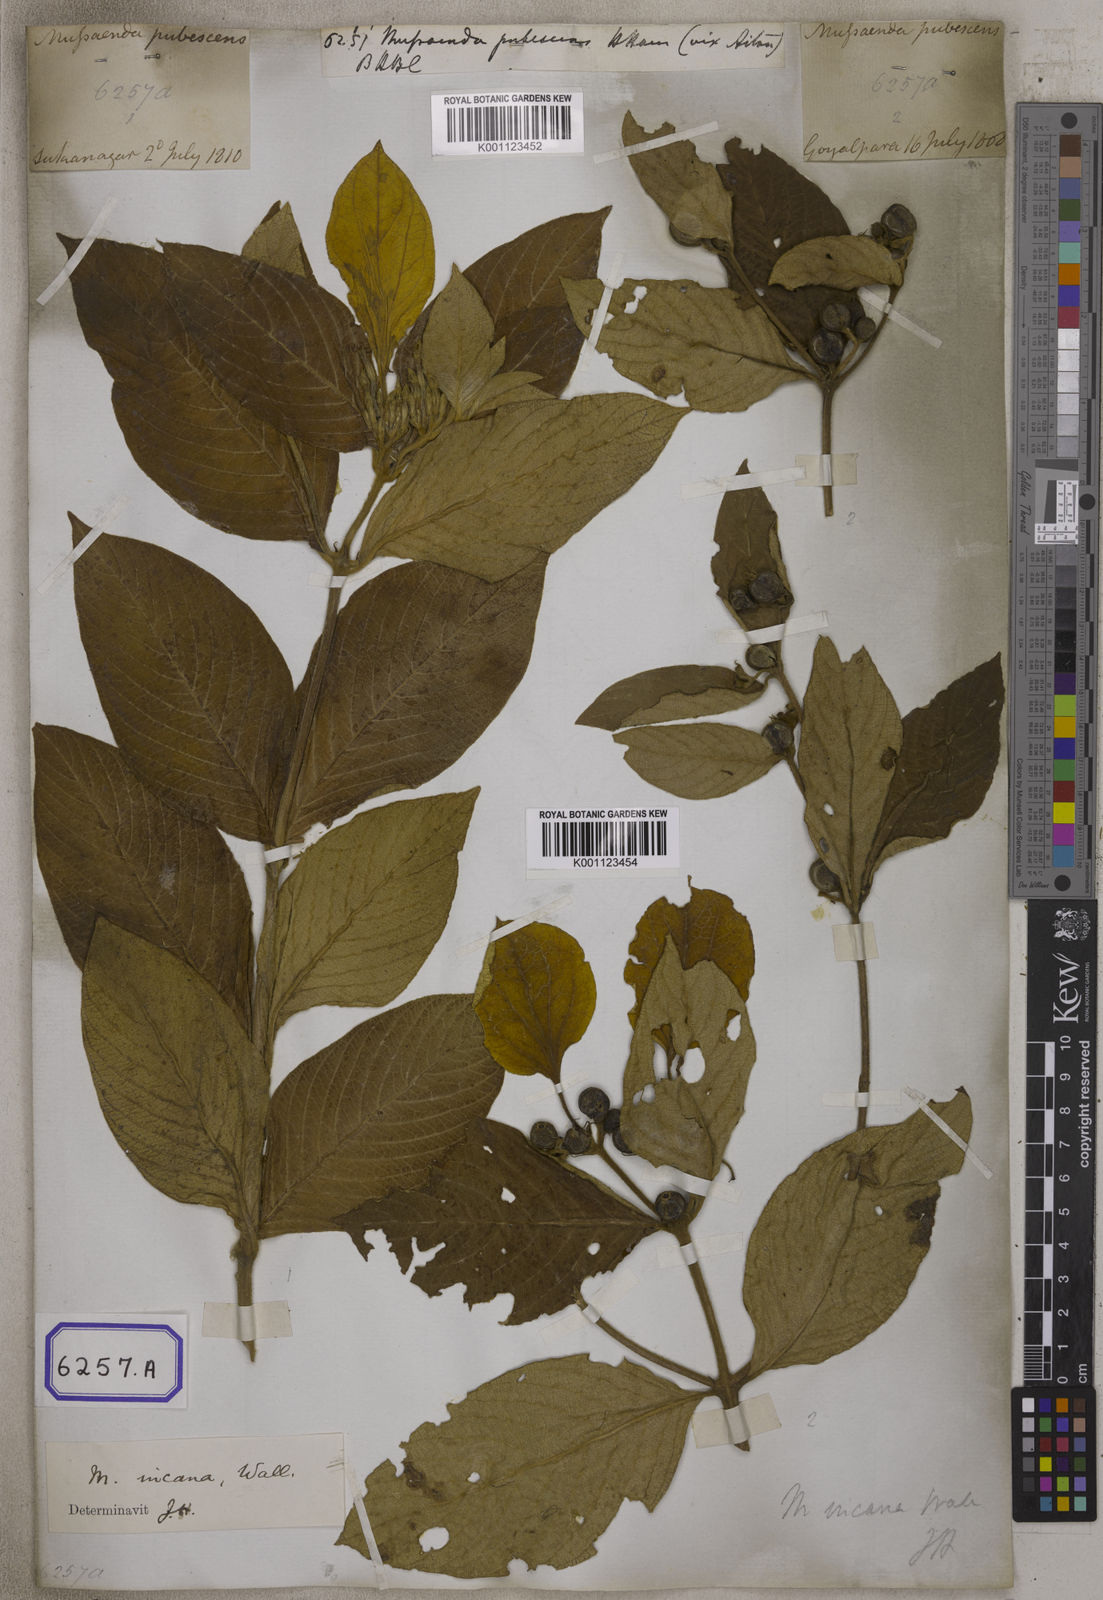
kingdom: Plantae
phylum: Tracheophyta
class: Magnoliopsida
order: Gentianales
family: Rubiaceae
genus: Mussaenda
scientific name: Mussaenda
